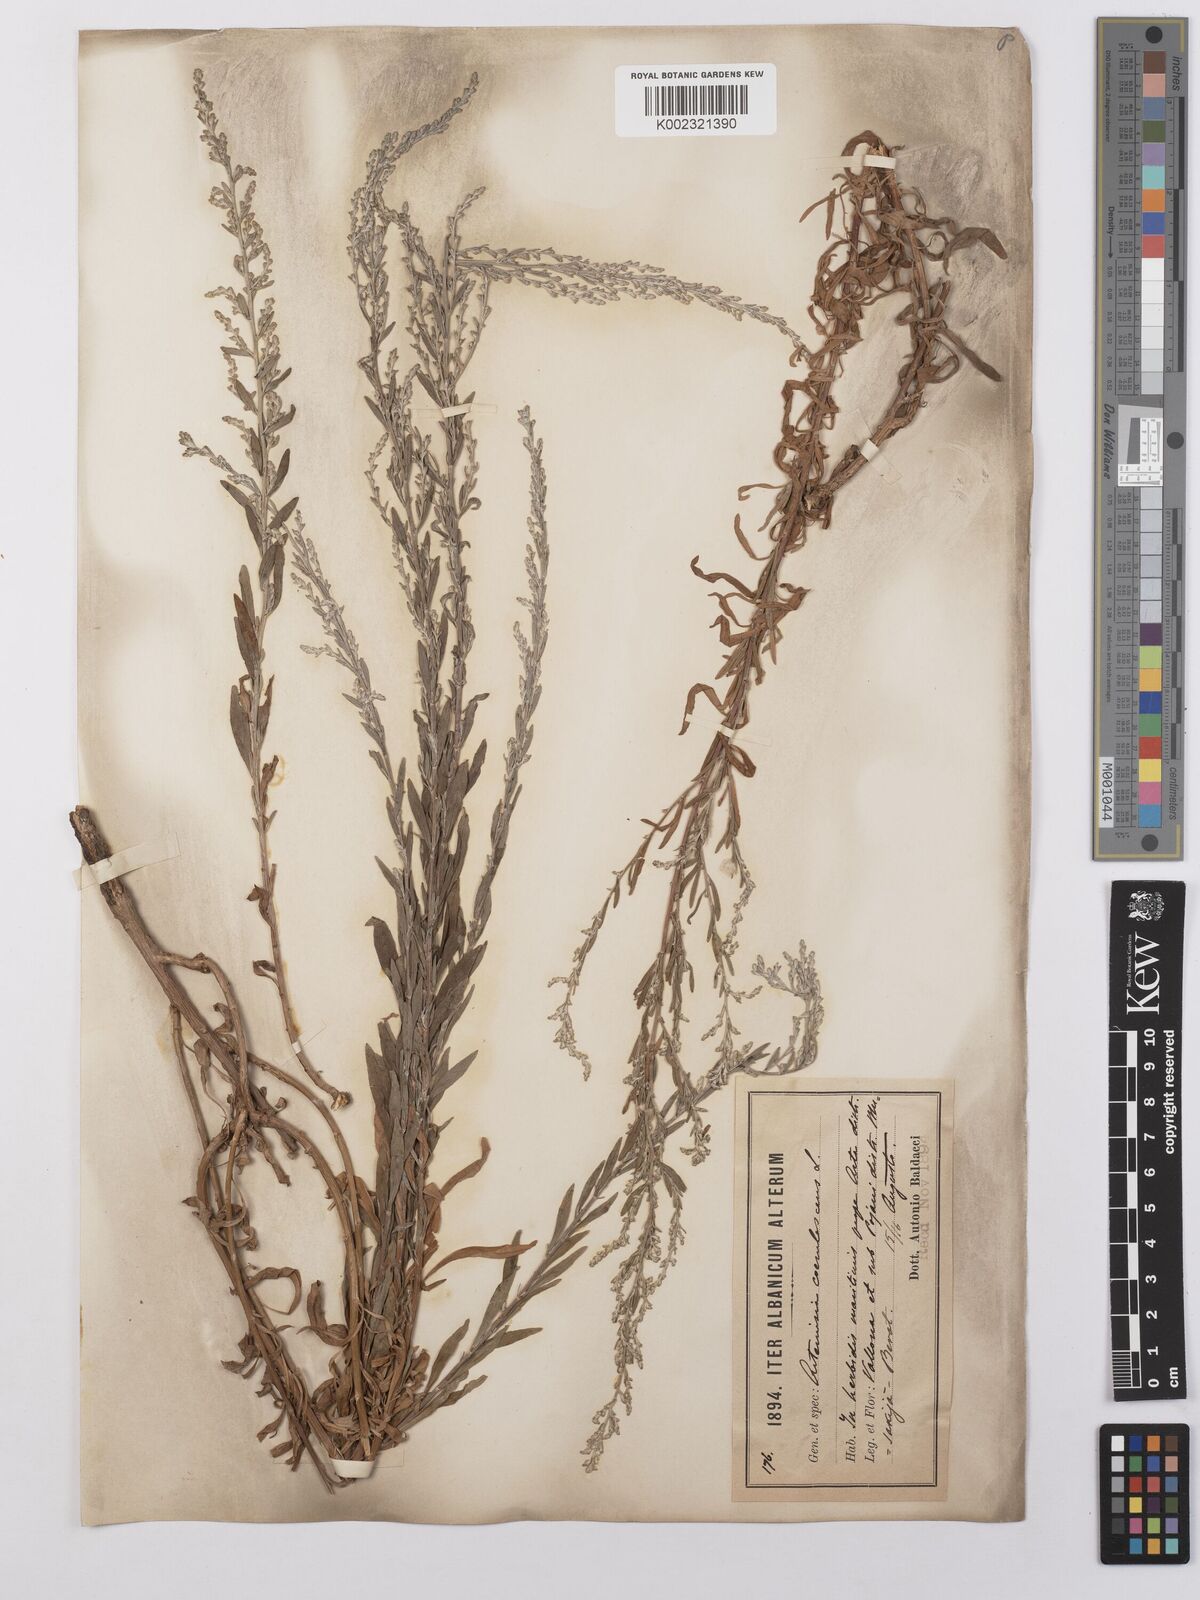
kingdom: Plantae
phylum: Tracheophyta
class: Magnoliopsida
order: Asterales
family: Asteraceae
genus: Artemisia
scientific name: Artemisia caerulescens
